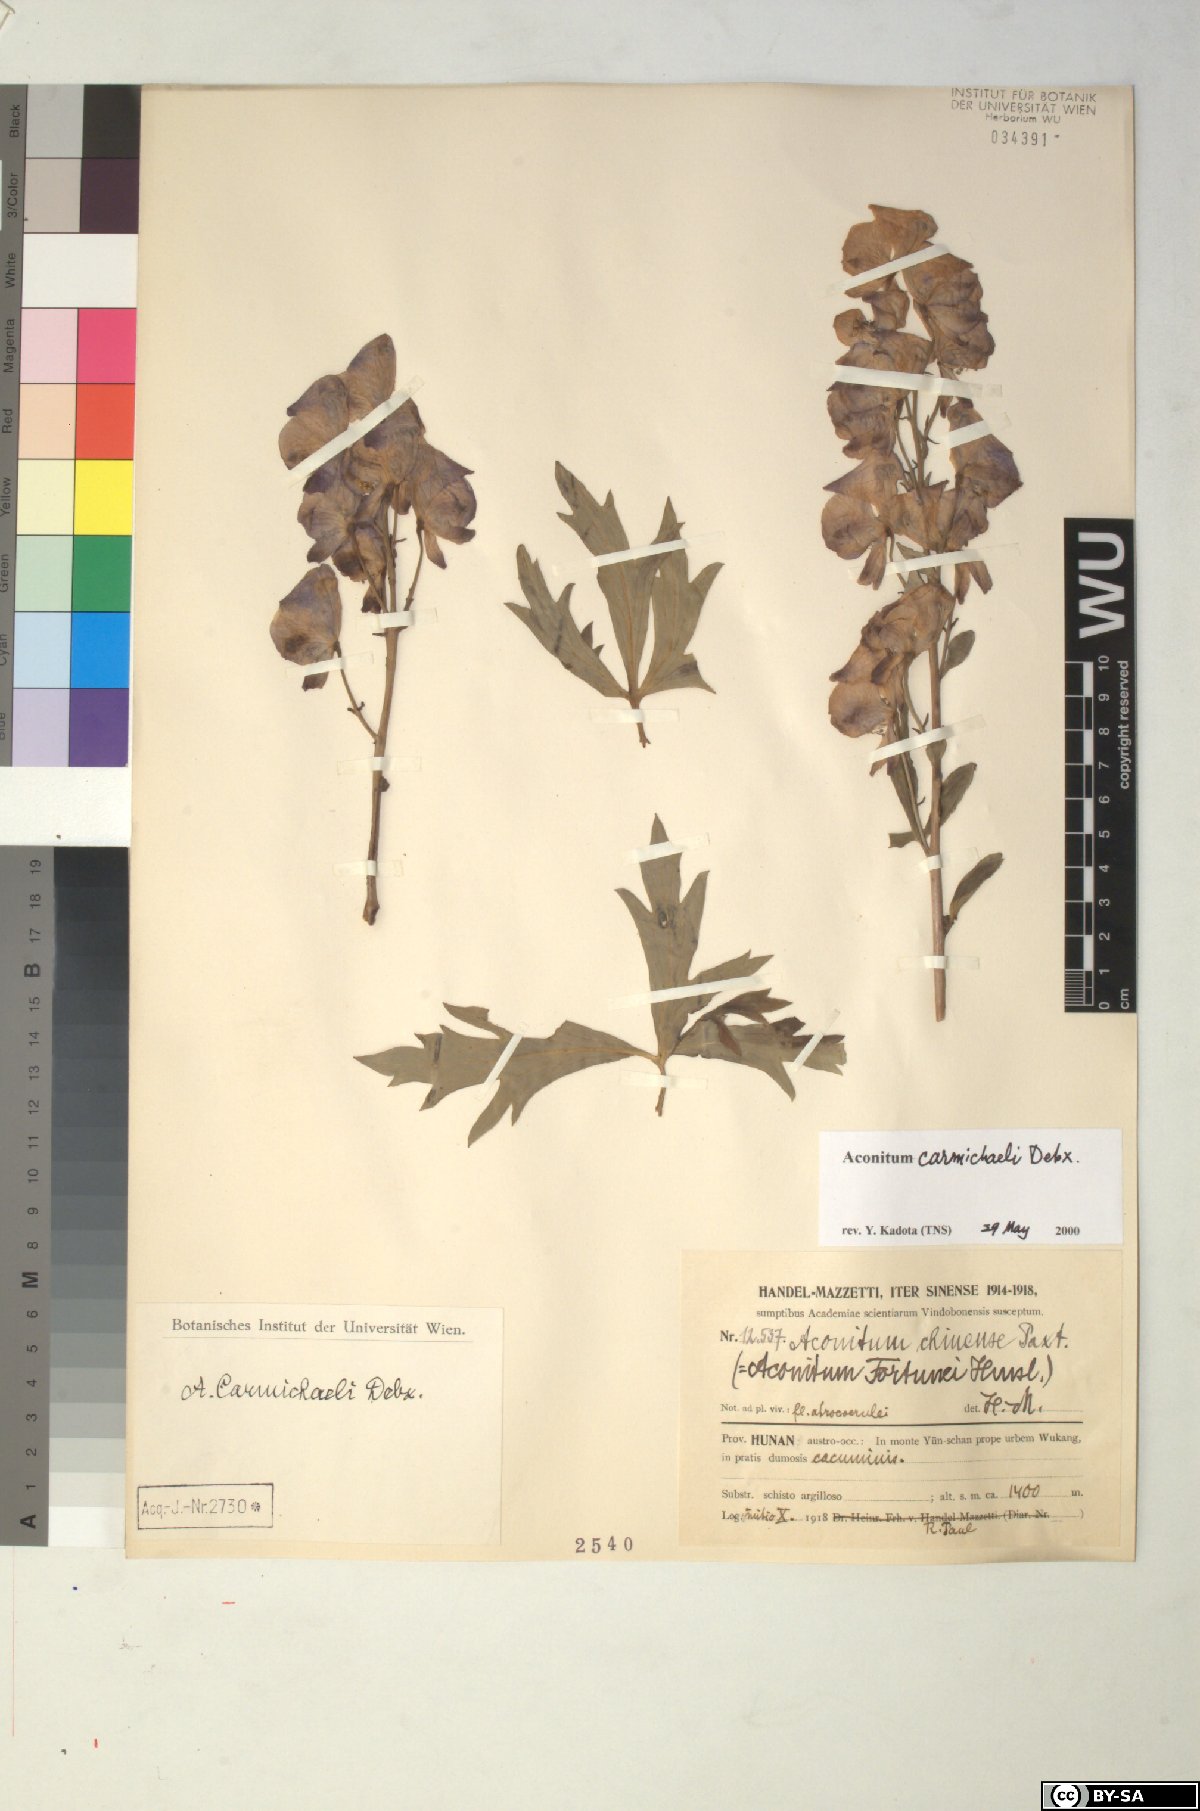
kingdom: Plantae
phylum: Tracheophyta
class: Magnoliopsida
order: Ranunculales
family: Ranunculaceae
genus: Aconitum
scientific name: Aconitum carmichaelii
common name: Carmichael's monkshood
